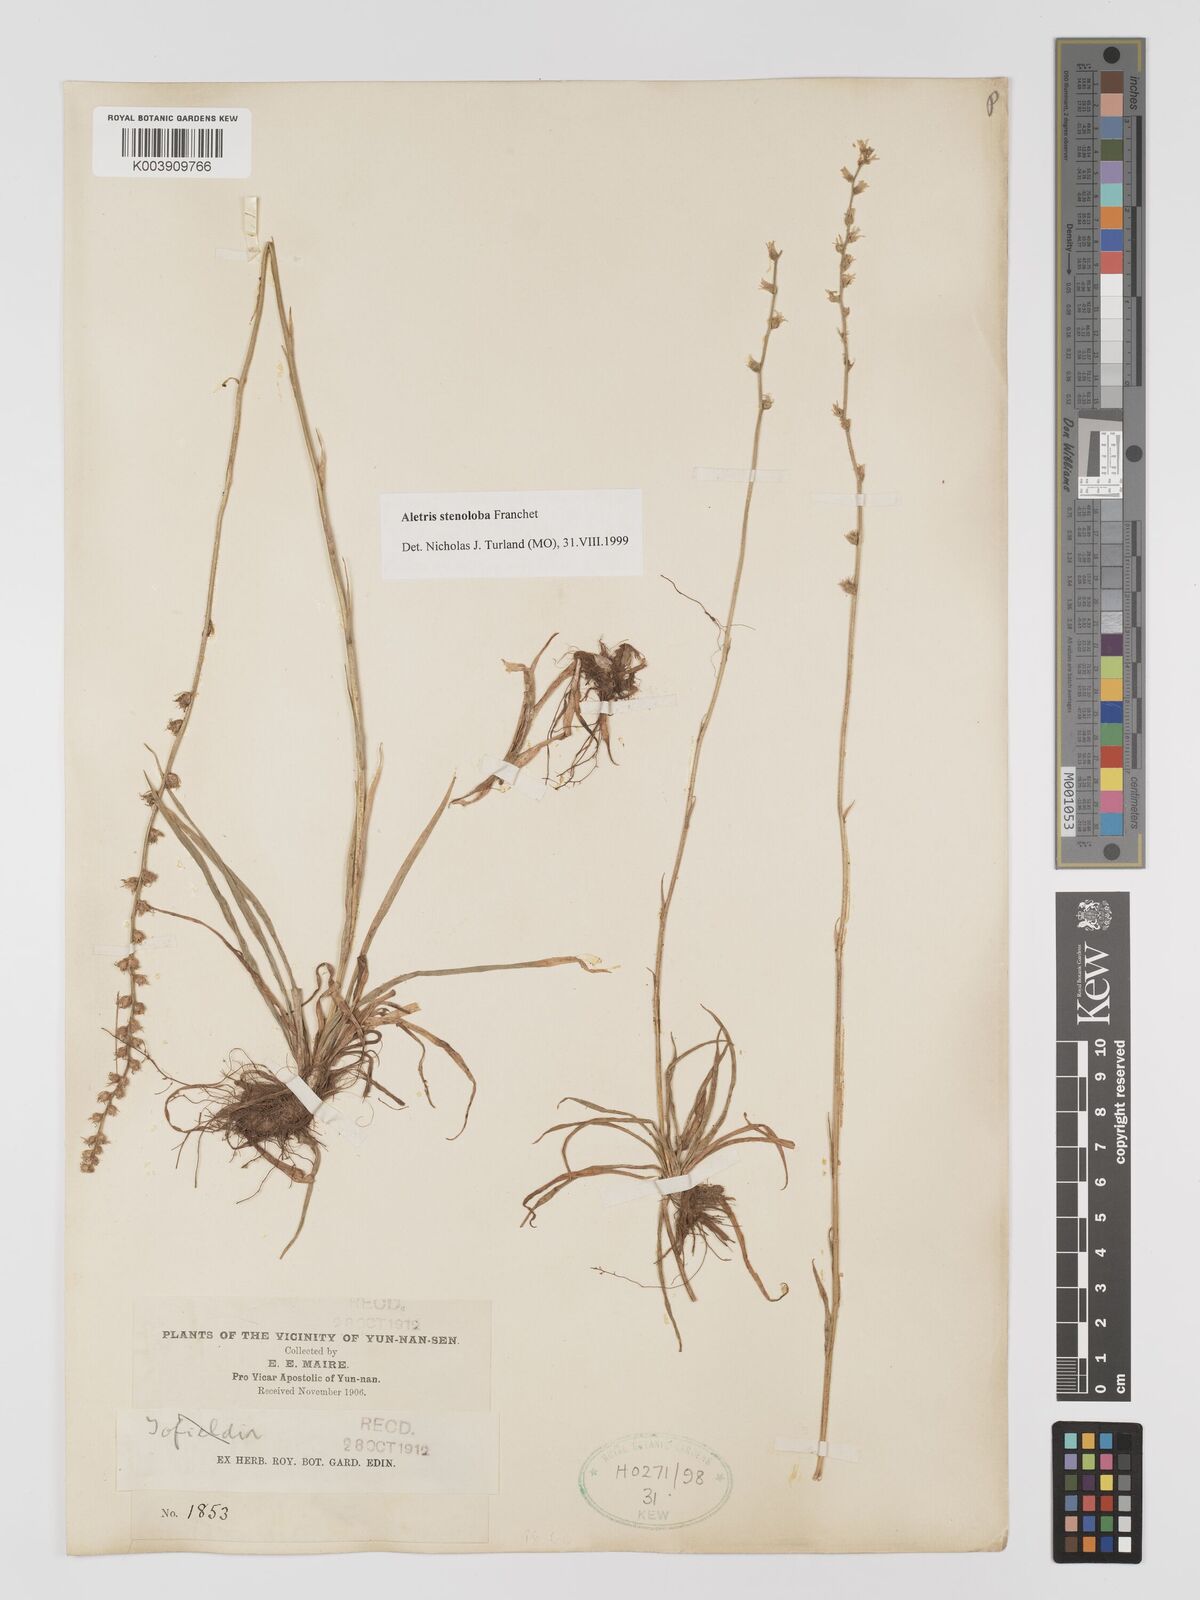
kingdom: Plantae
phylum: Tracheophyta
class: Liliopsida
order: Dioscoreales
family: Nartheciaceae
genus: Aletris
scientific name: Aletris stenoloba
